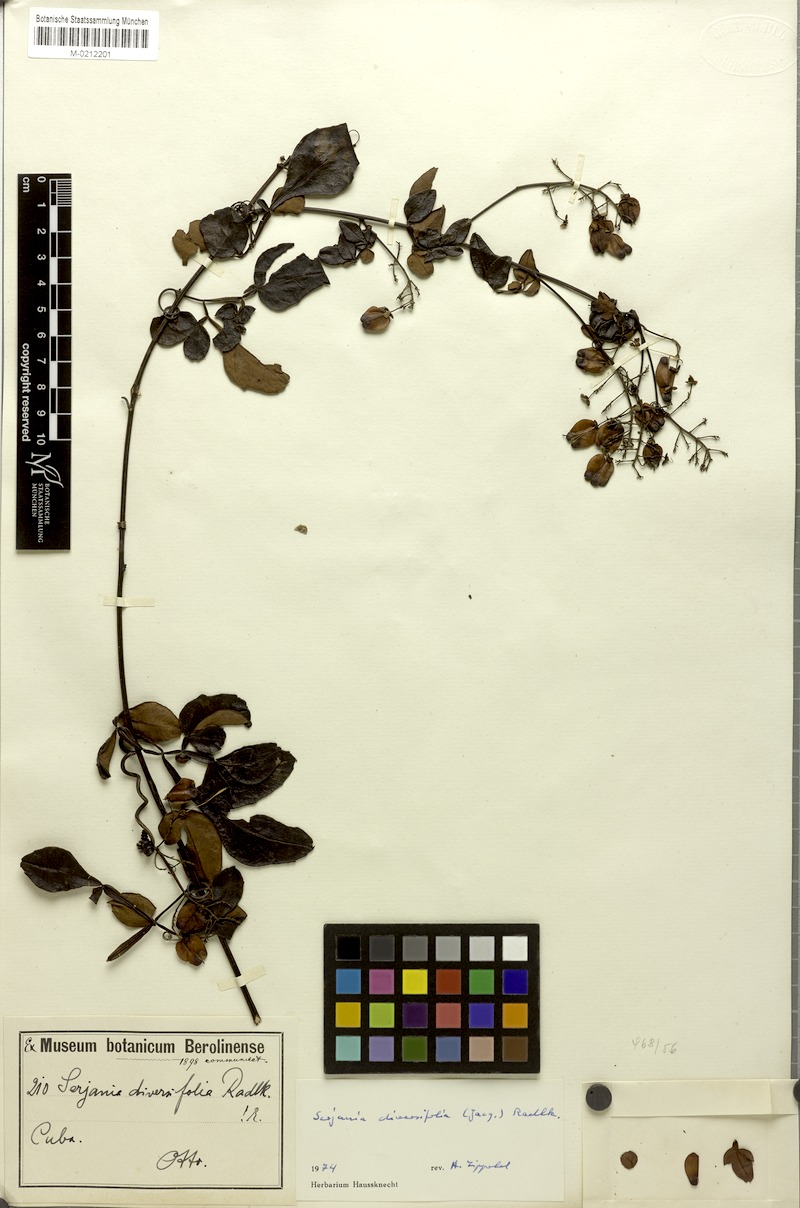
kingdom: Plantae
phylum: Tracheophyta
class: Magnoliopsida
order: Sapindales
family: Sapindaceae
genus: Serjania
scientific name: Serjania diversifolia
